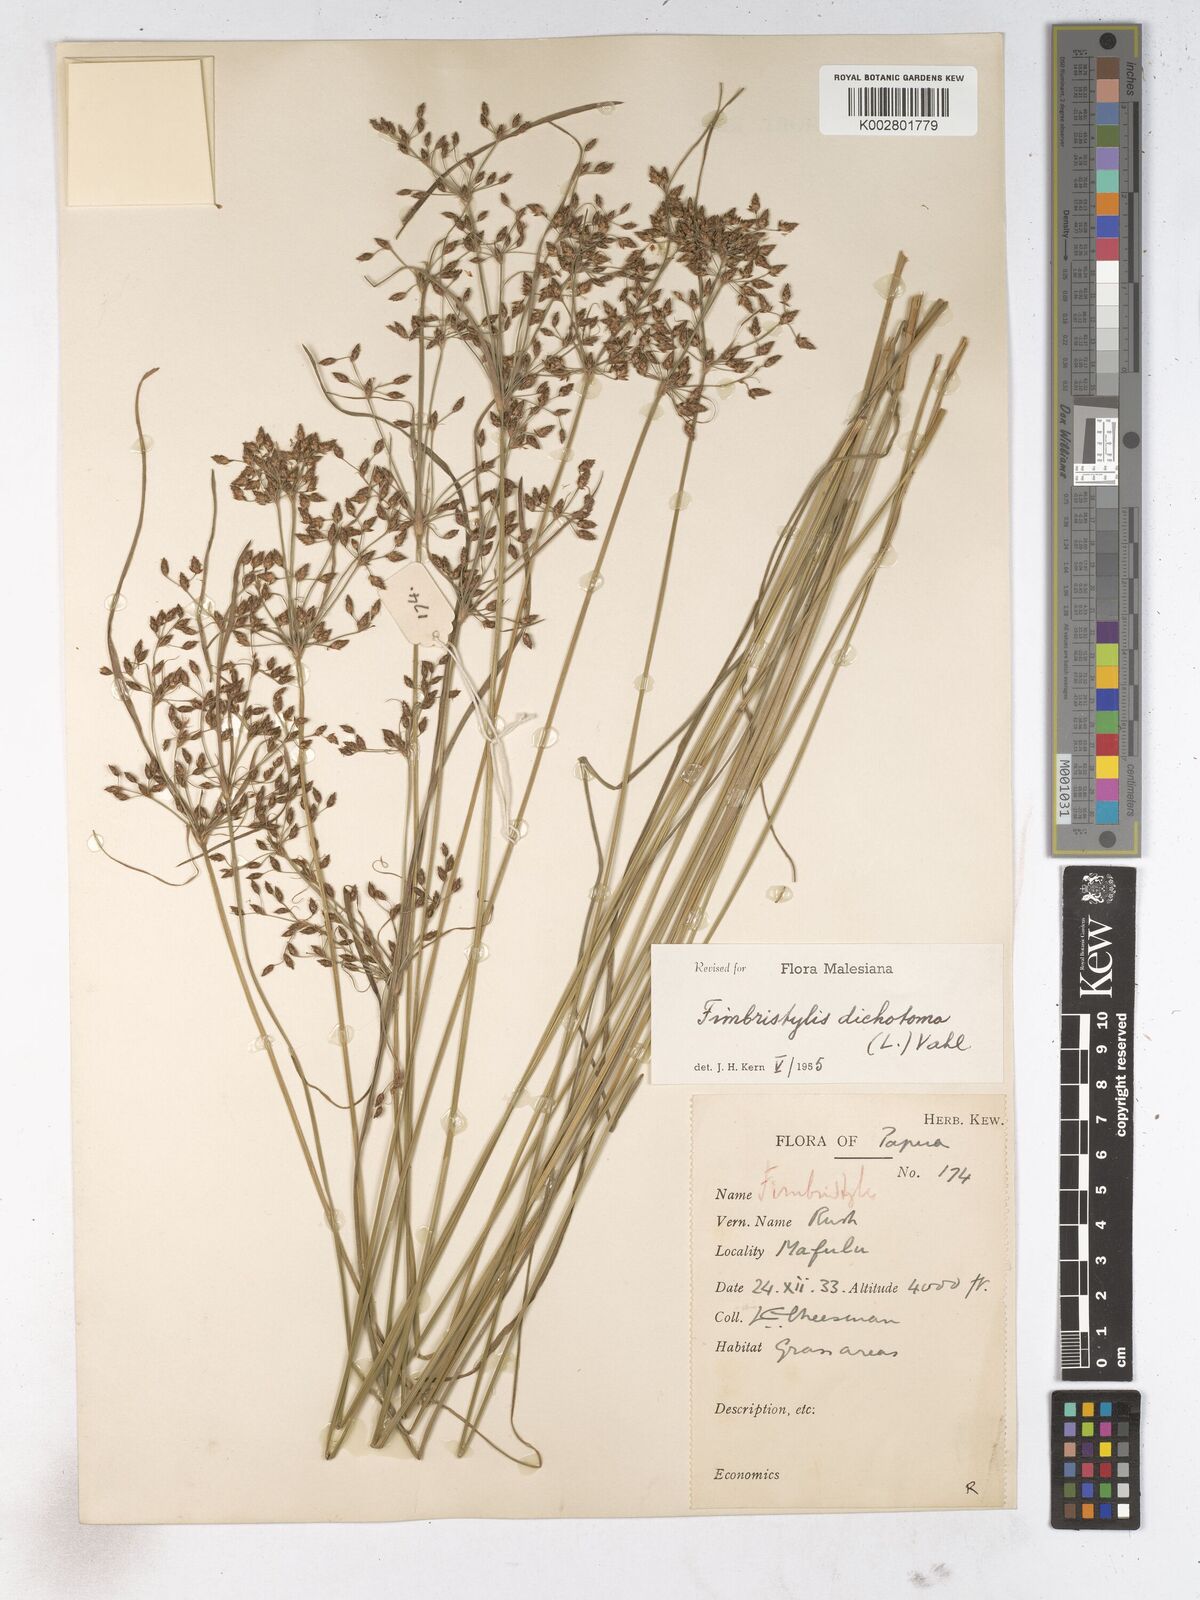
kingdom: Plantae
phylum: Tracheophyta
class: Liliopsida
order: Poales
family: Cyperaceae
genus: Fimbristylis
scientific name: Fimbristylis dichotoma
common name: Forked fimbry
